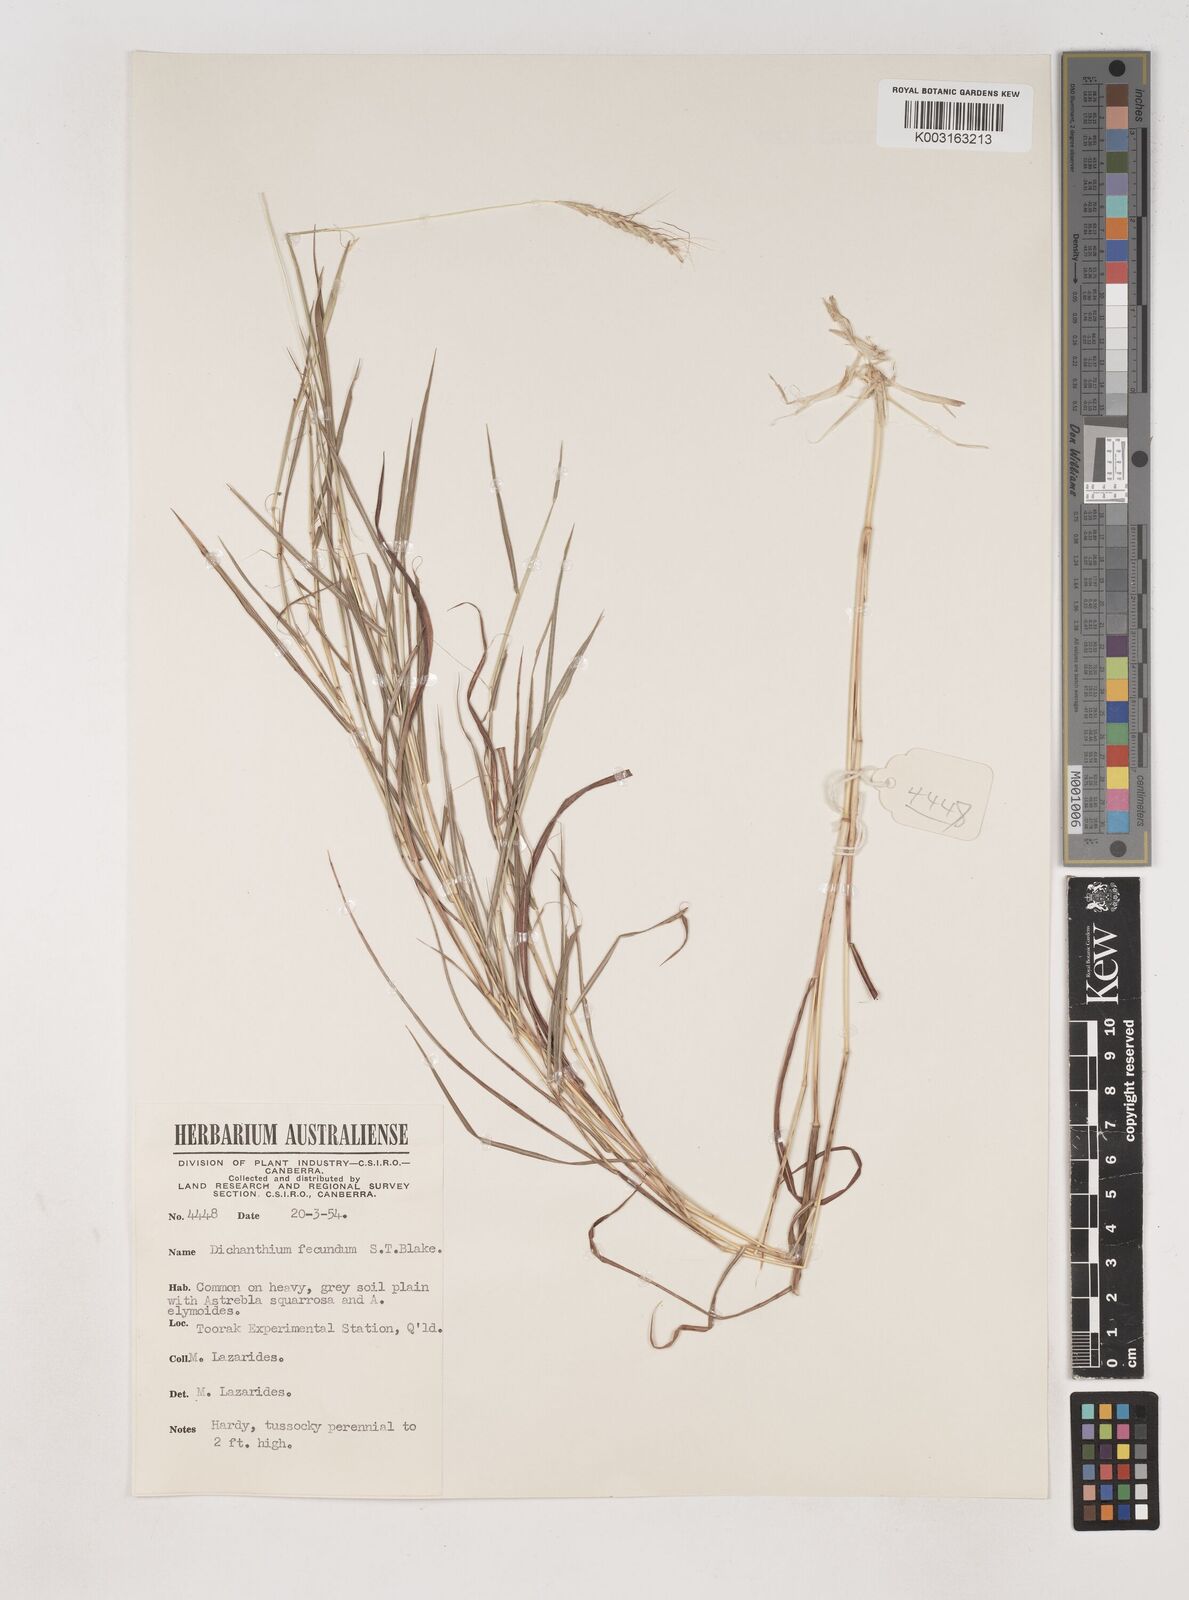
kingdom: Plantae
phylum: Tracheophyta
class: Liliopsida
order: Poales
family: Poaceae
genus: Dichanthium
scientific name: Dichanthium fecundum
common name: Bundle-bundle
